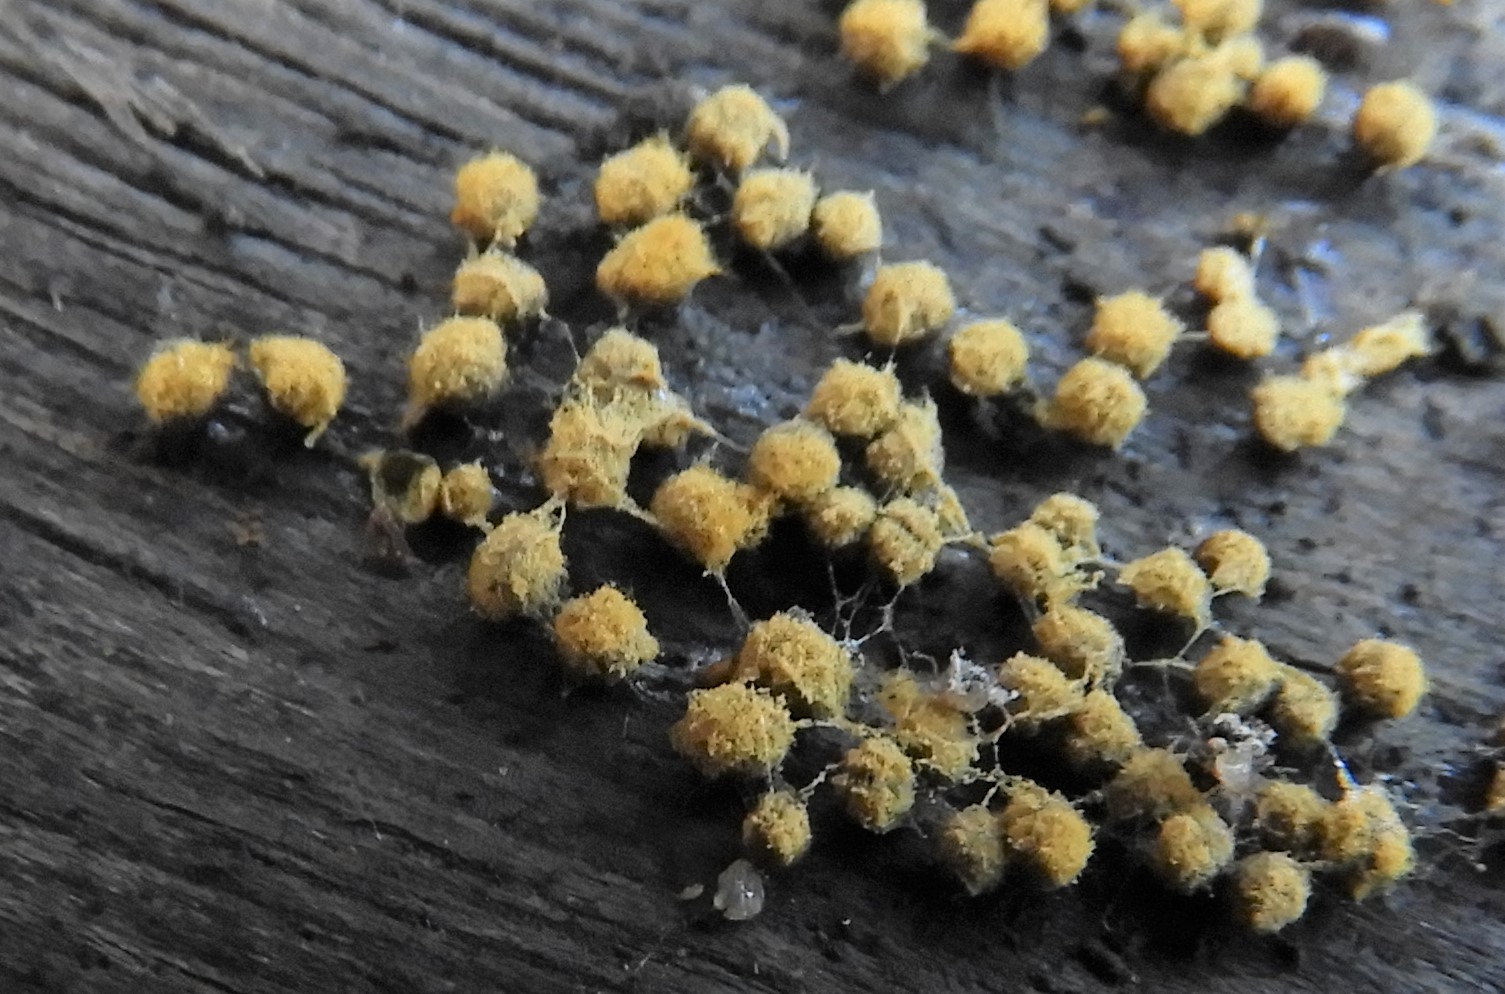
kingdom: Protozoa
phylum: Mycetozoa
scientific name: Mycetozoa
